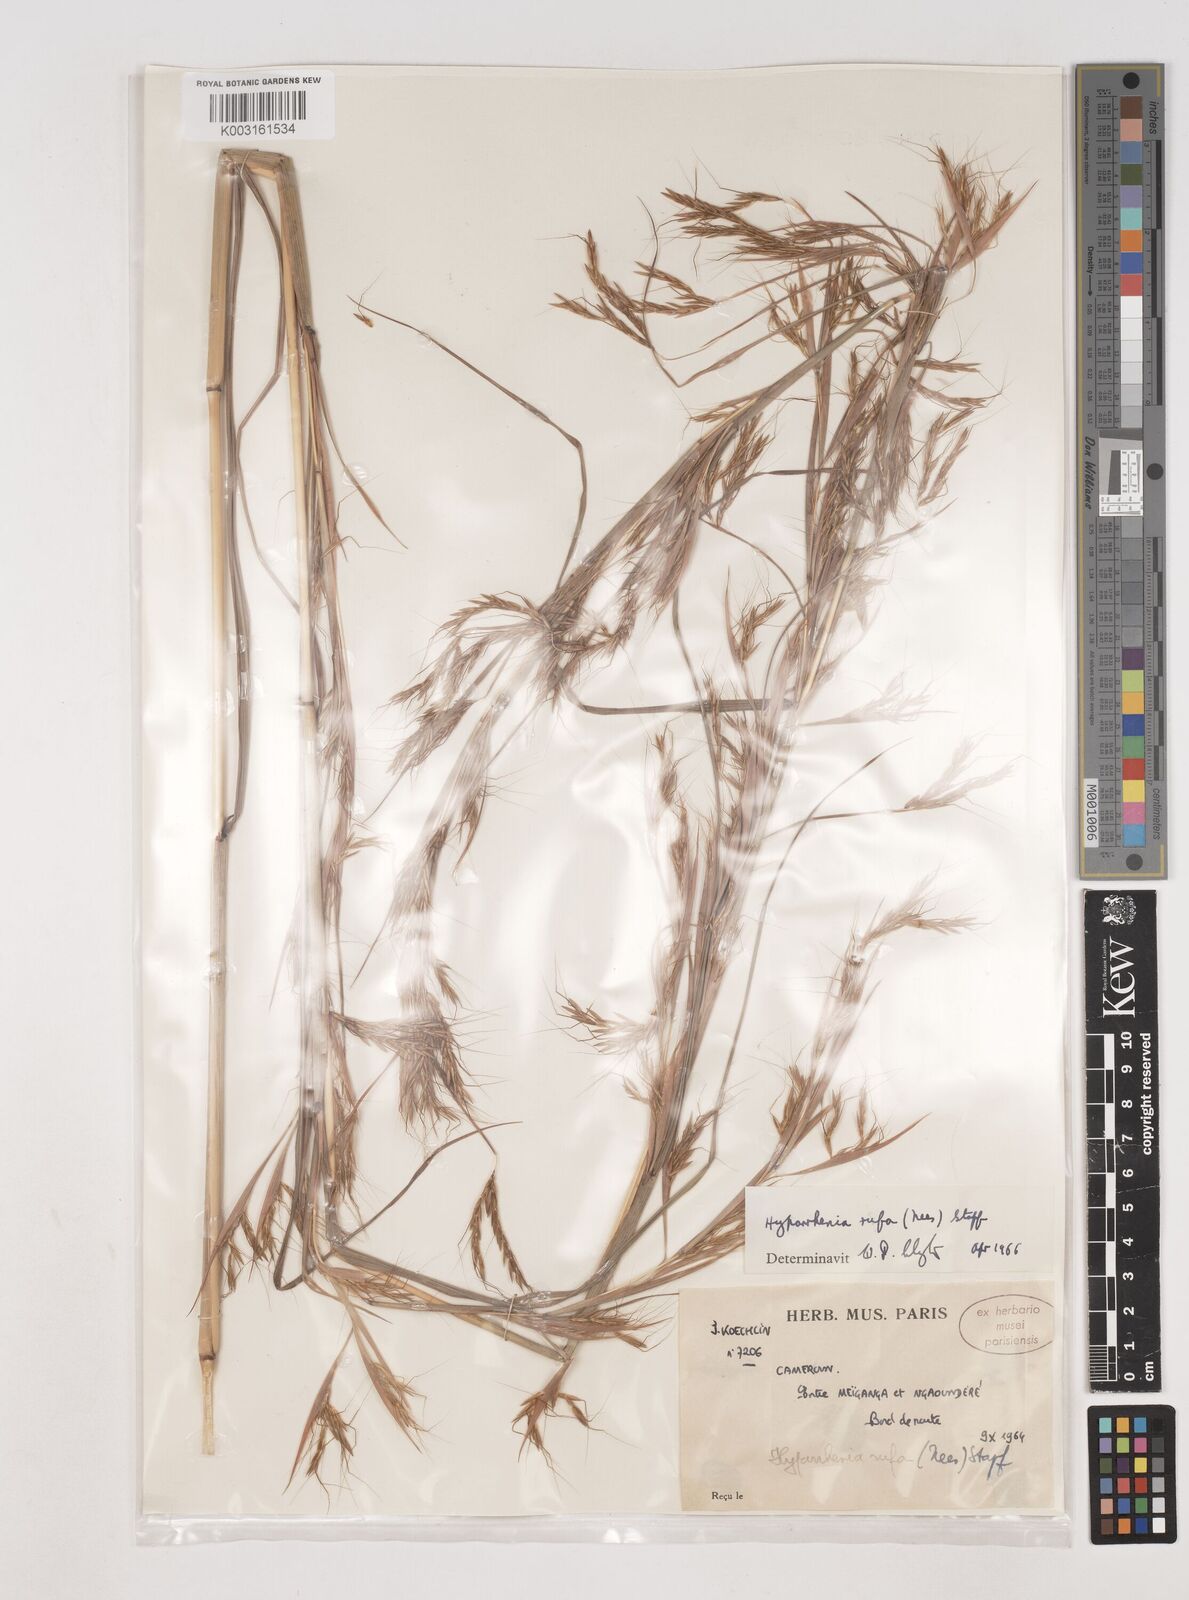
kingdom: Plantae
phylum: Tracheophyta
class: Liliopsida
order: Poales
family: Poaceae
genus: Hyparrhenia
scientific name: Hyparrhenia rufa
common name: Jaraguagrass
